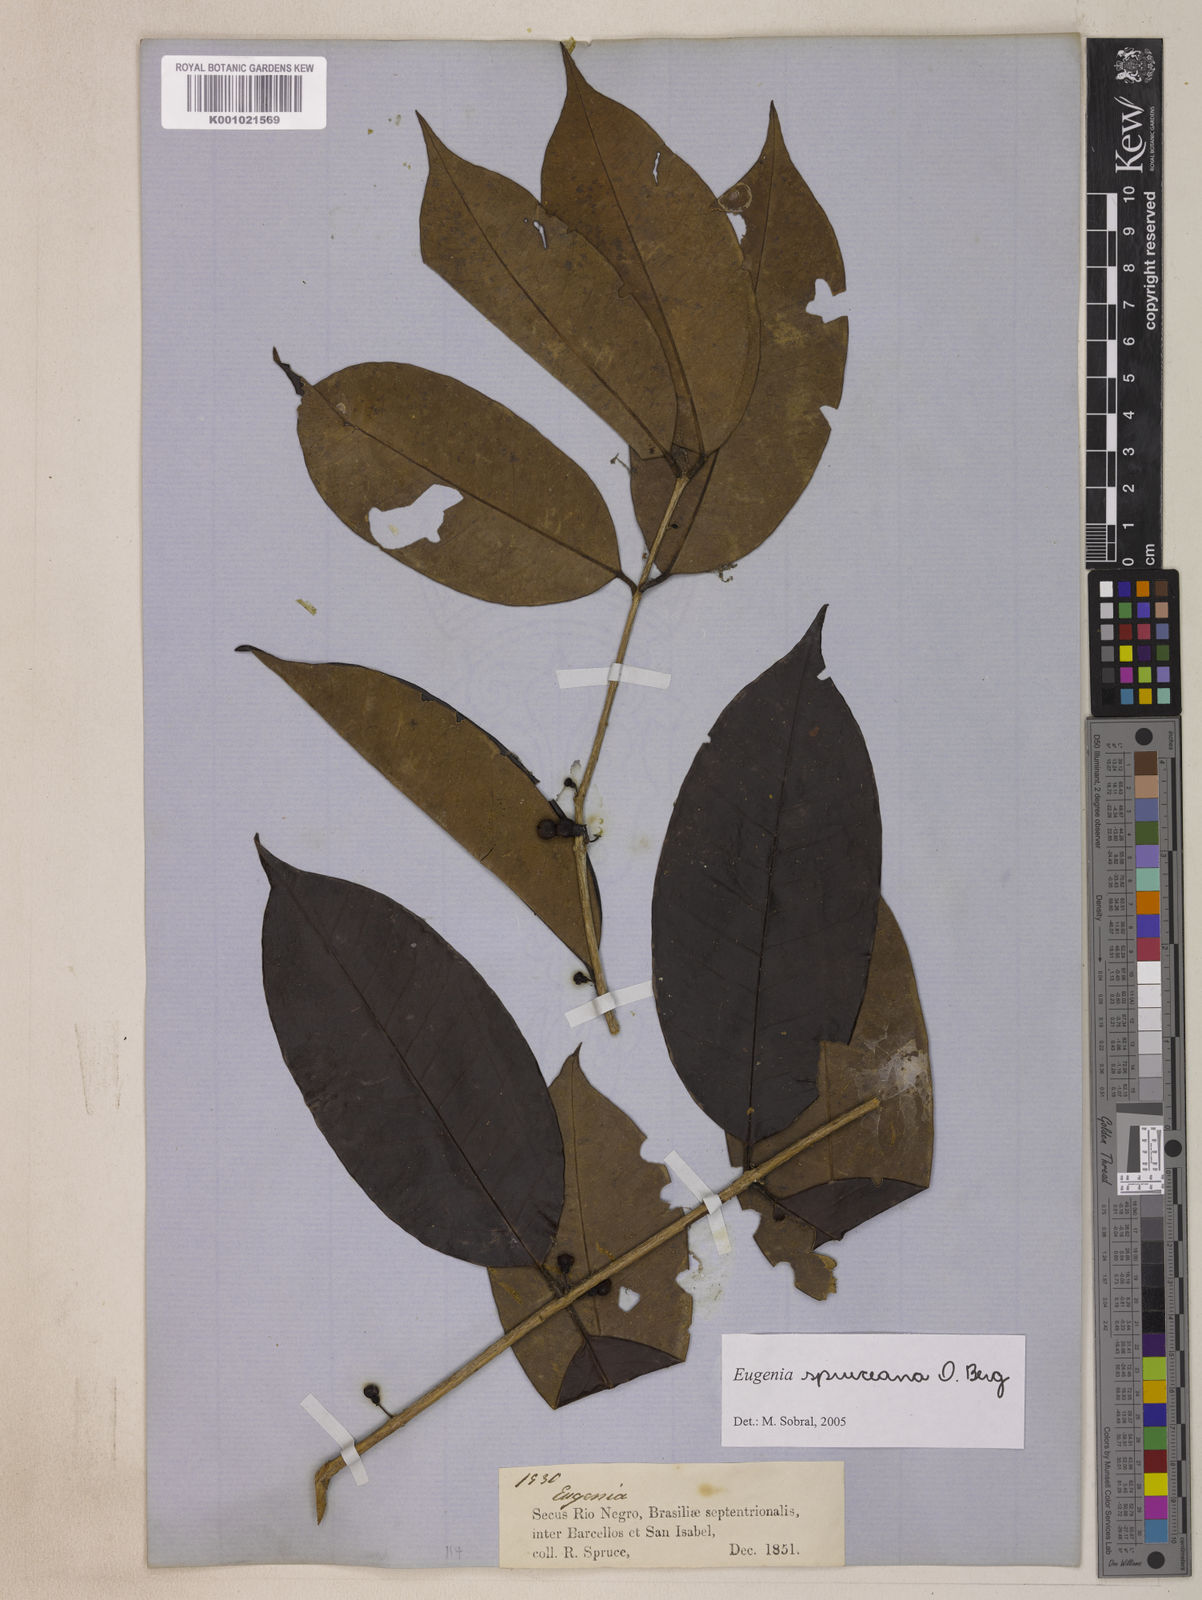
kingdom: Plantae
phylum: Tracheophyta
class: Magnoliopsida
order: Myrtales
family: Myrtaceae
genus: Eugenia
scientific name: Eugenia spruceana
